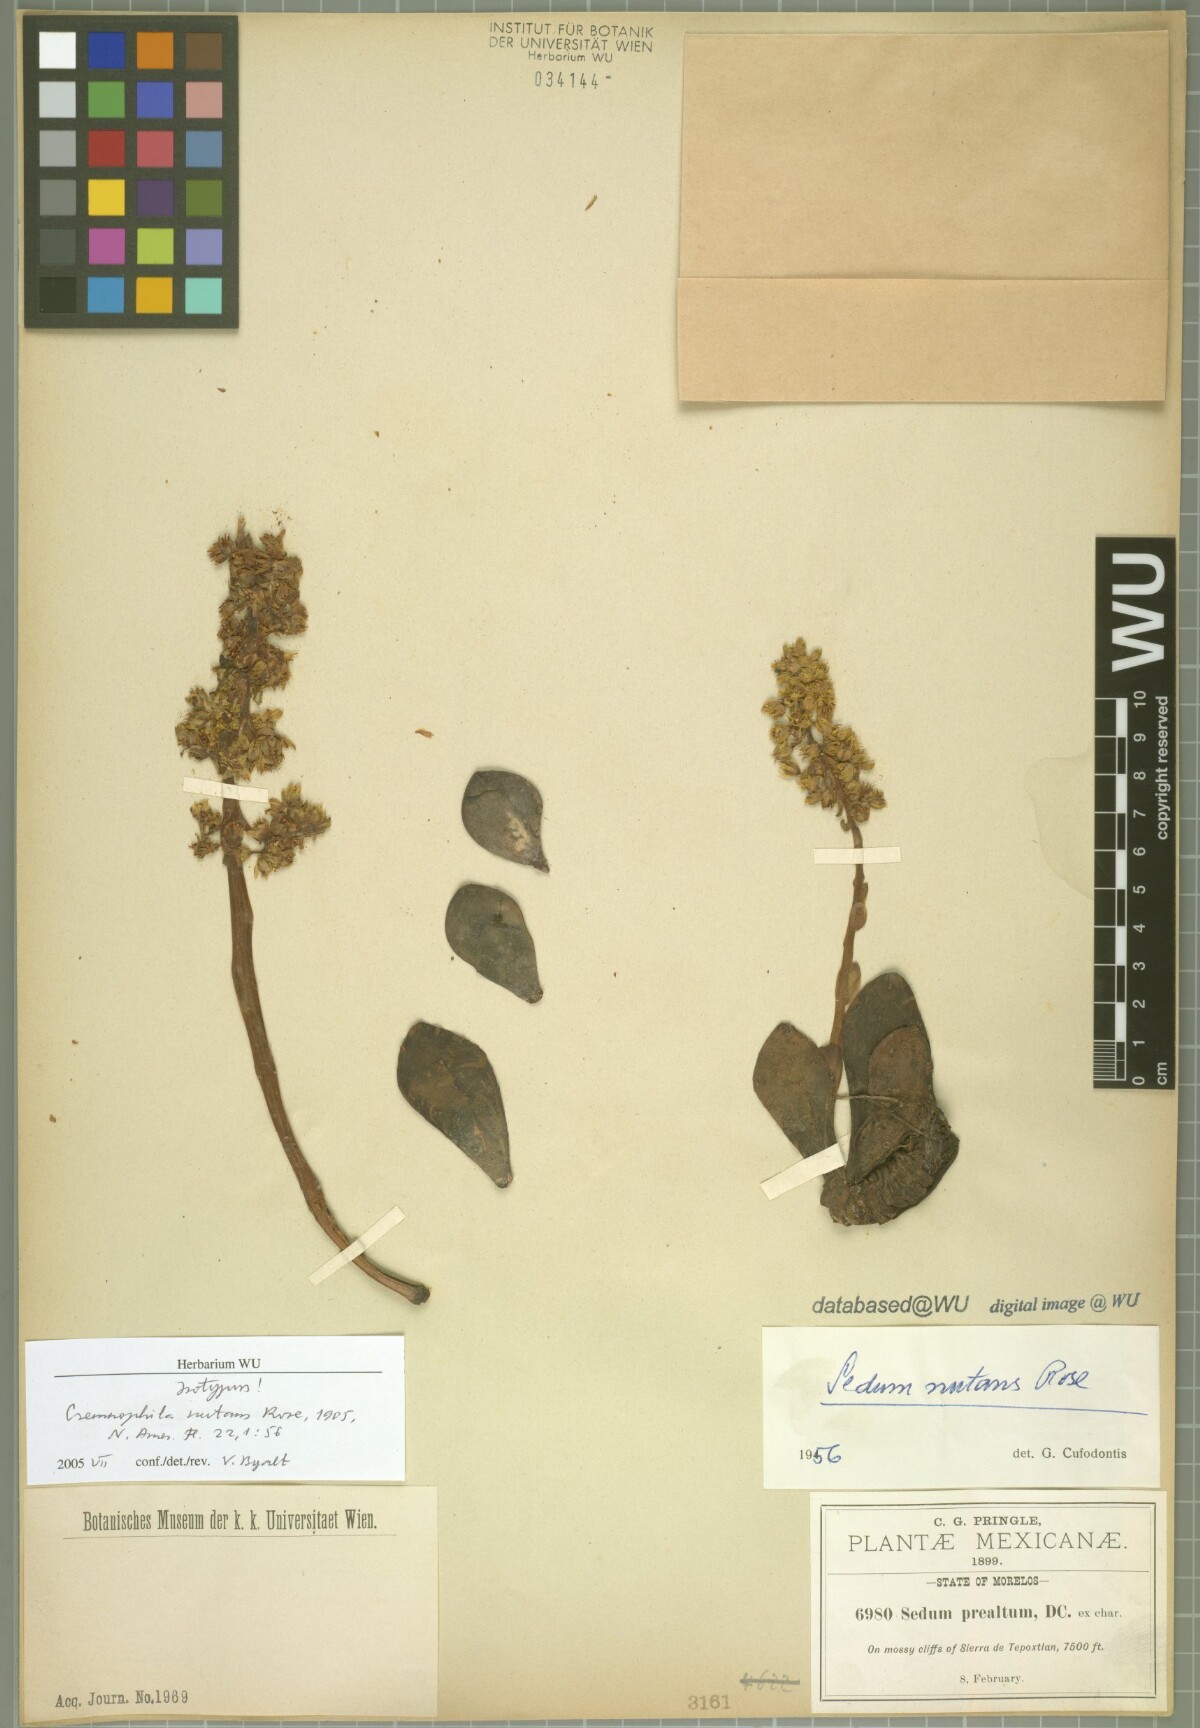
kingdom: Plantae
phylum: Tracheophyta
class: Magnoliopsida
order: Saxifragales
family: Crassulaceae
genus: Cremnophila
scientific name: Cremnophila nutans
